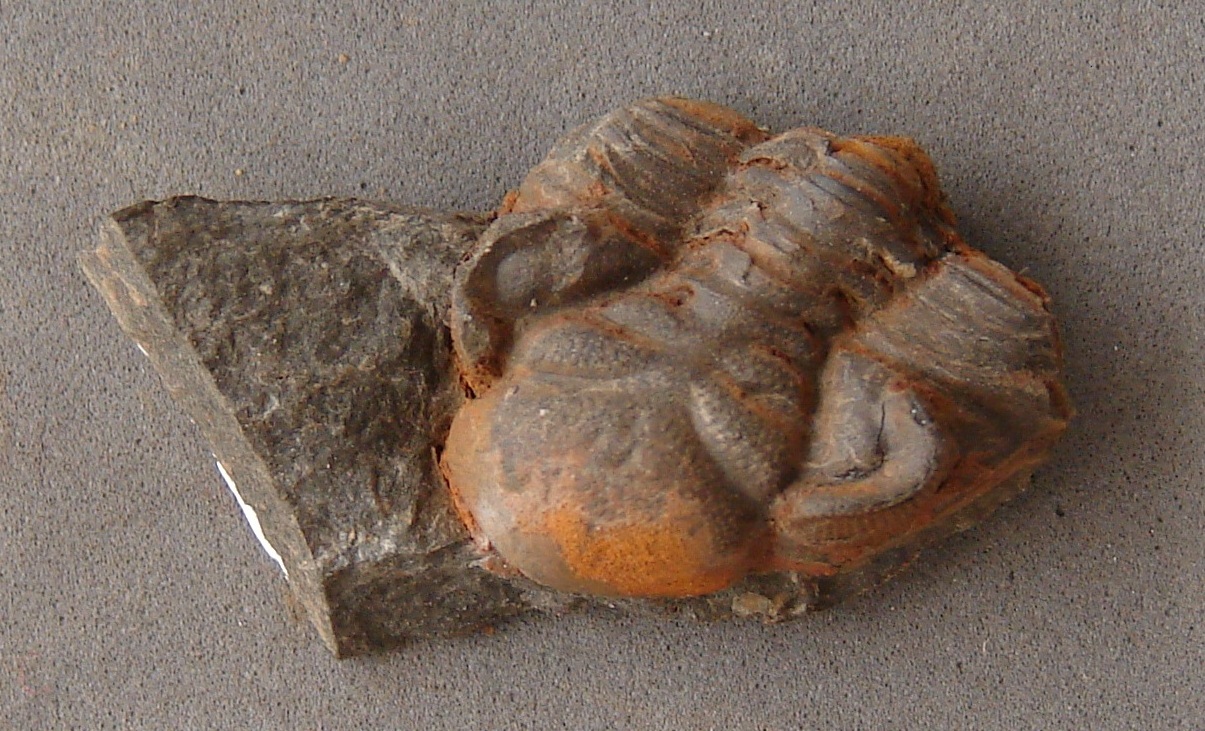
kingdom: Animalia
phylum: Arthropoda
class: Trilobita
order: Phacopida
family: Acastidae
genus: Kayserops
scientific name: Kayserops daleidensis
